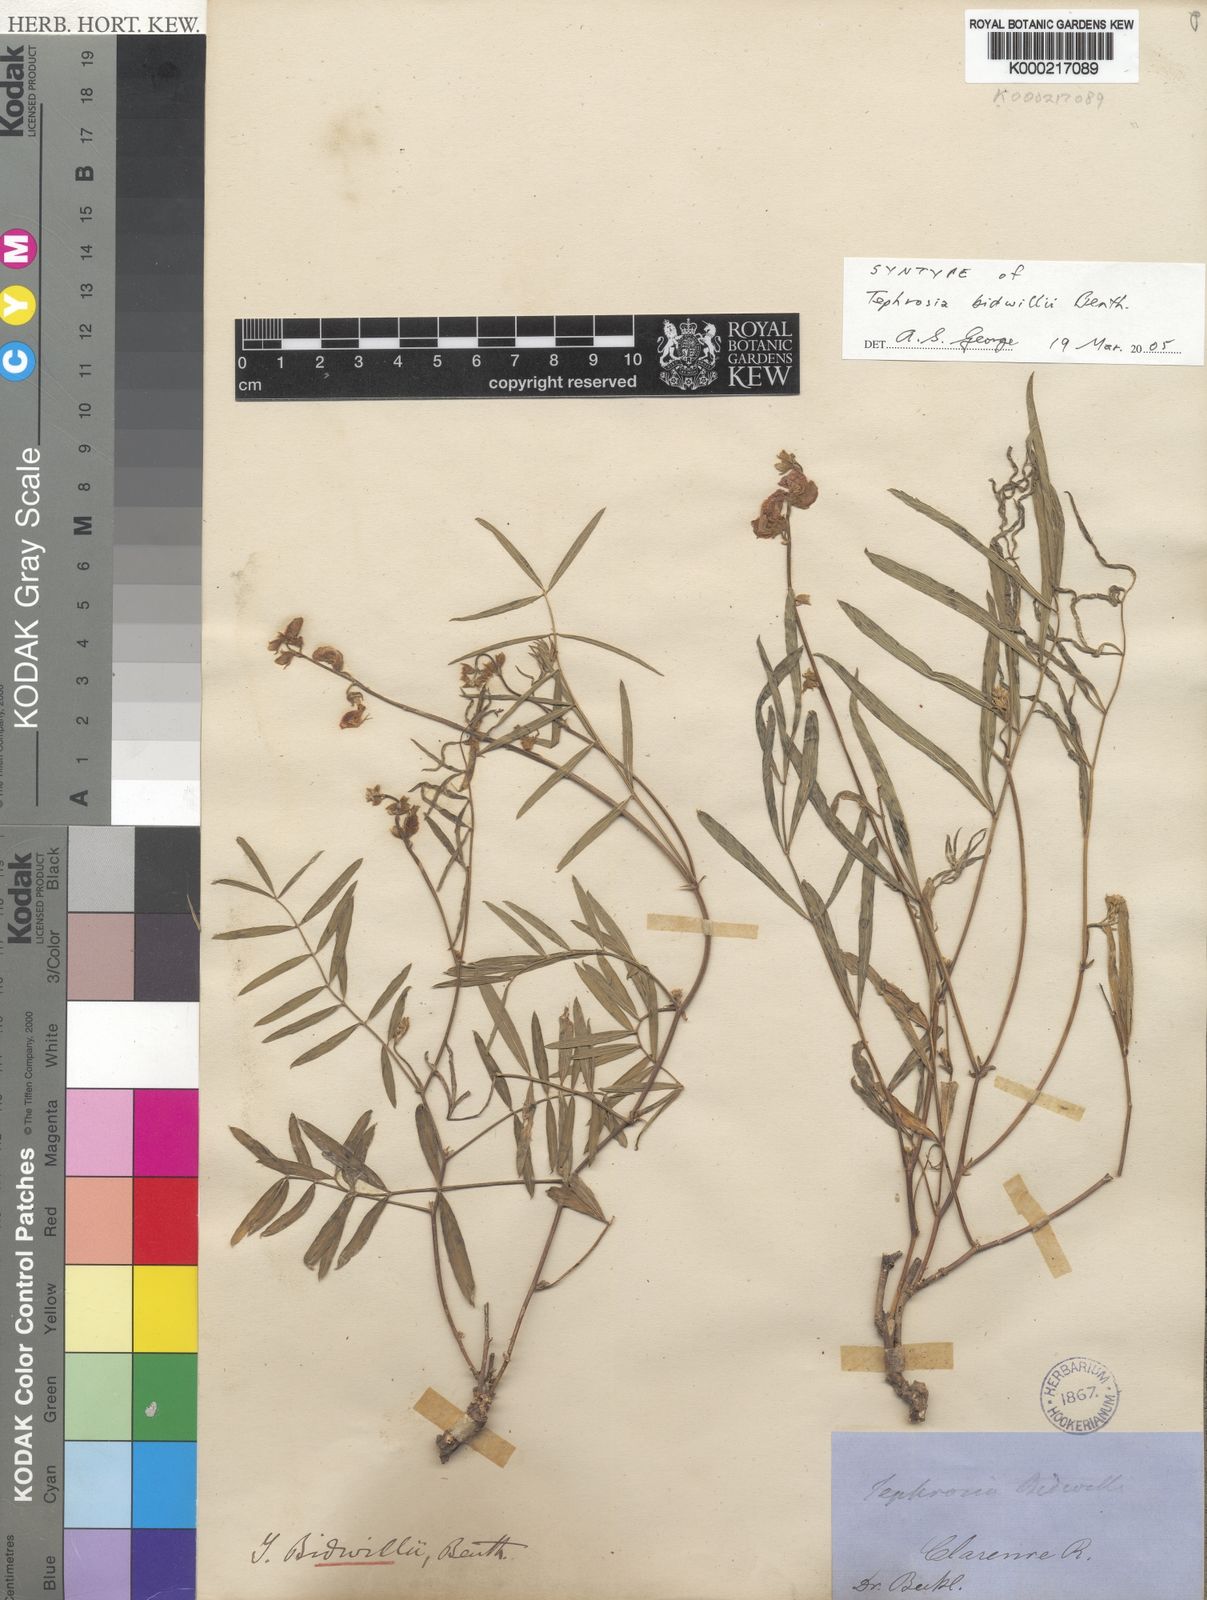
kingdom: Plantae
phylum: Tracheophyta
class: Magnoliopsida
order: Fabales
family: Fabaceae
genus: Tephrosia
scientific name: Tephrosia bidwillii
